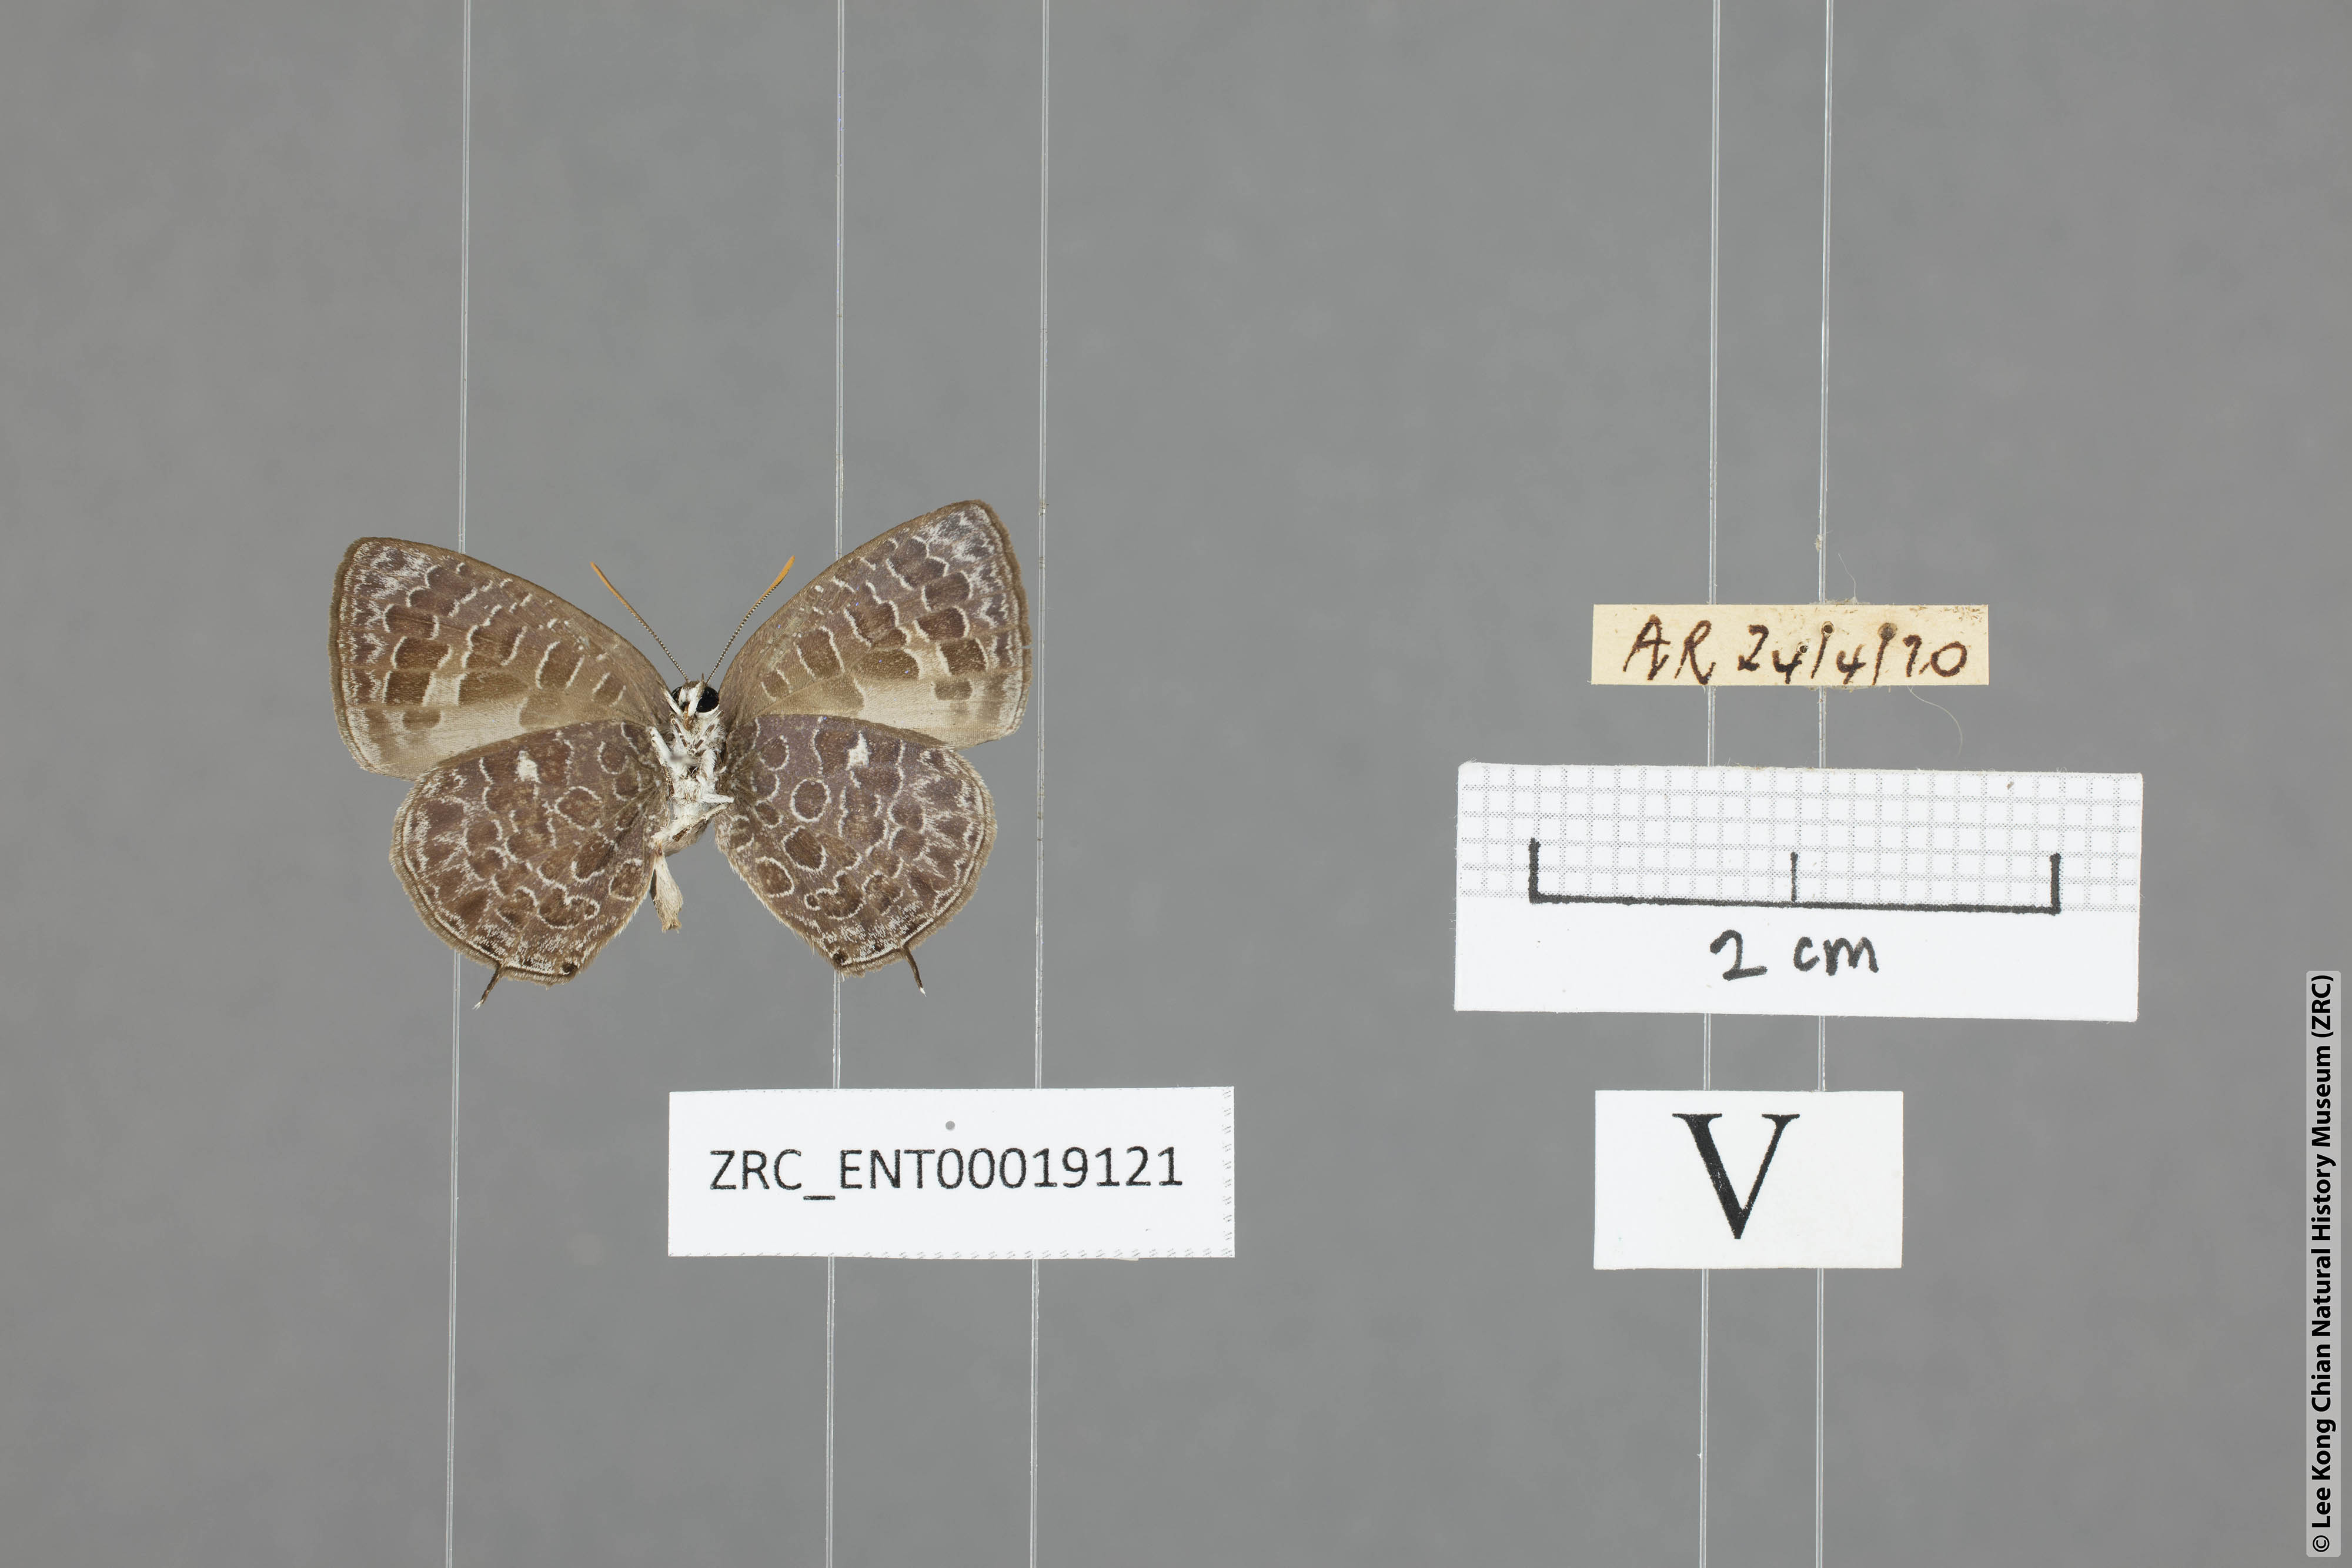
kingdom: Animalia
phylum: Arthropoda
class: Insecta
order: Lepidoptera
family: Lycaenidae
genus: Arhopala
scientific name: Arhopala ammonides
